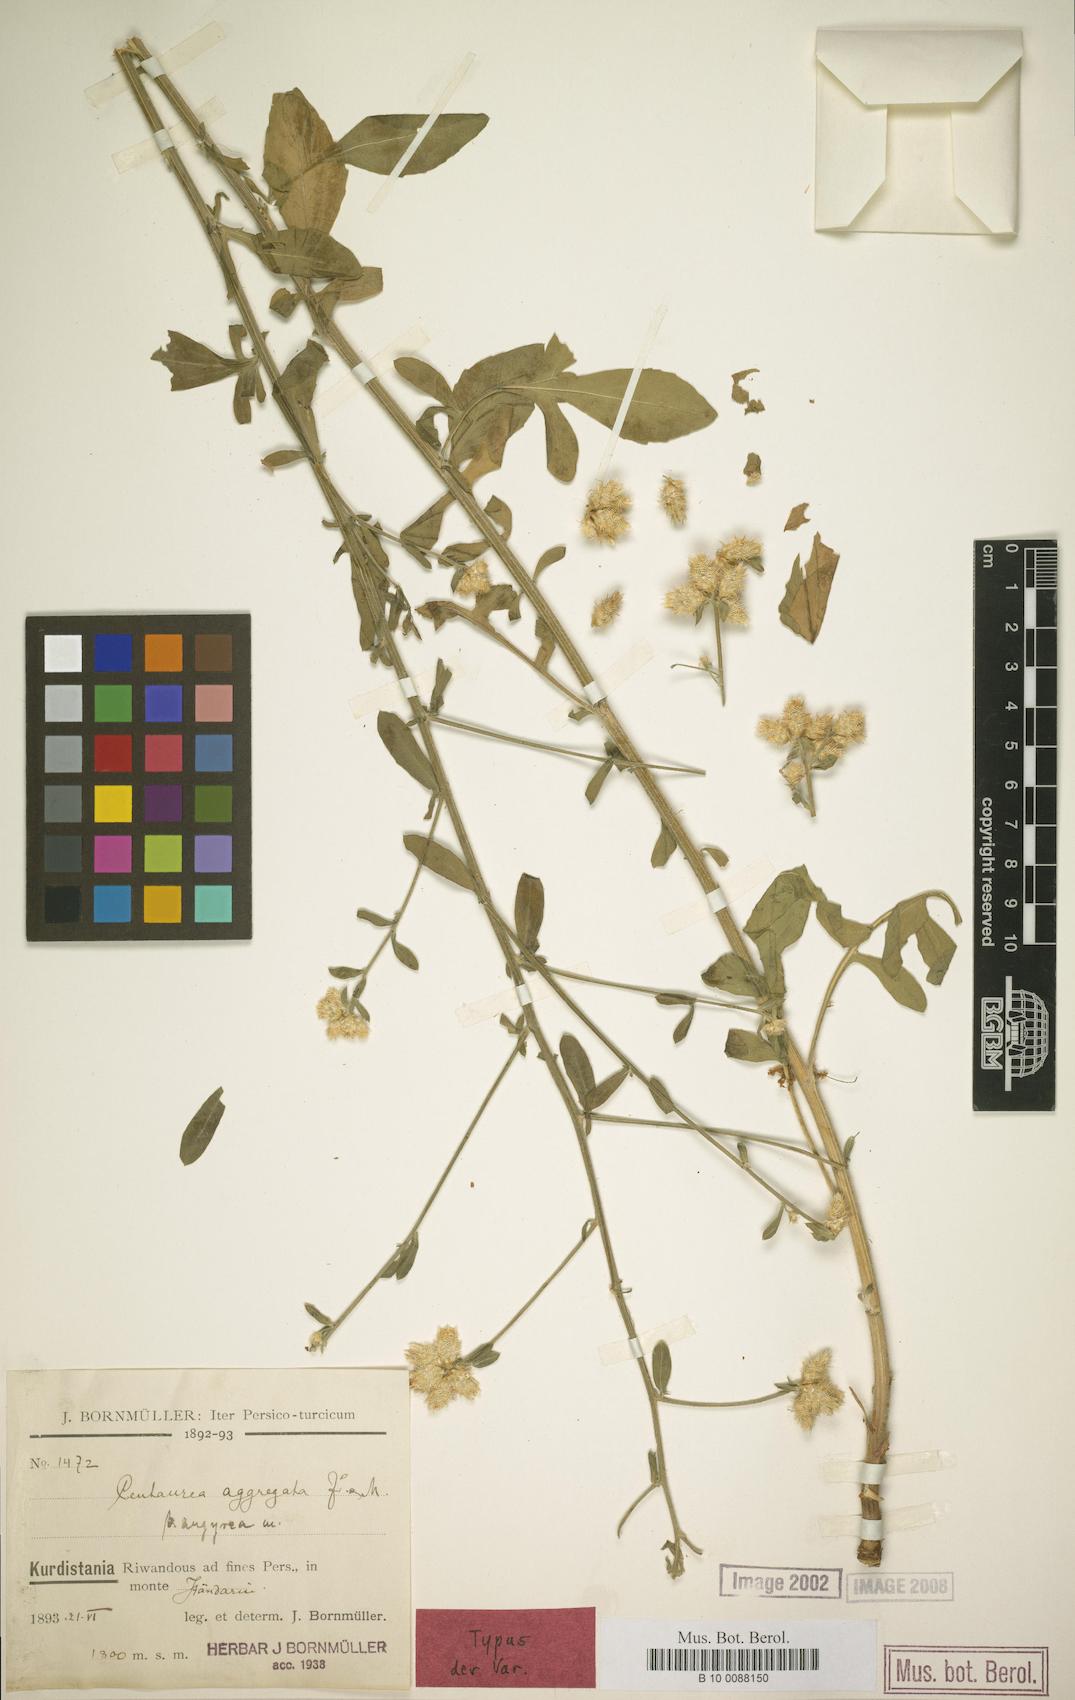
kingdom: Plantae
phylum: Tracheophyta
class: Magnoliopsida
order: Asterales
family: Asteraceae
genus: Centaurea
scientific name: Centaurea aggregata
